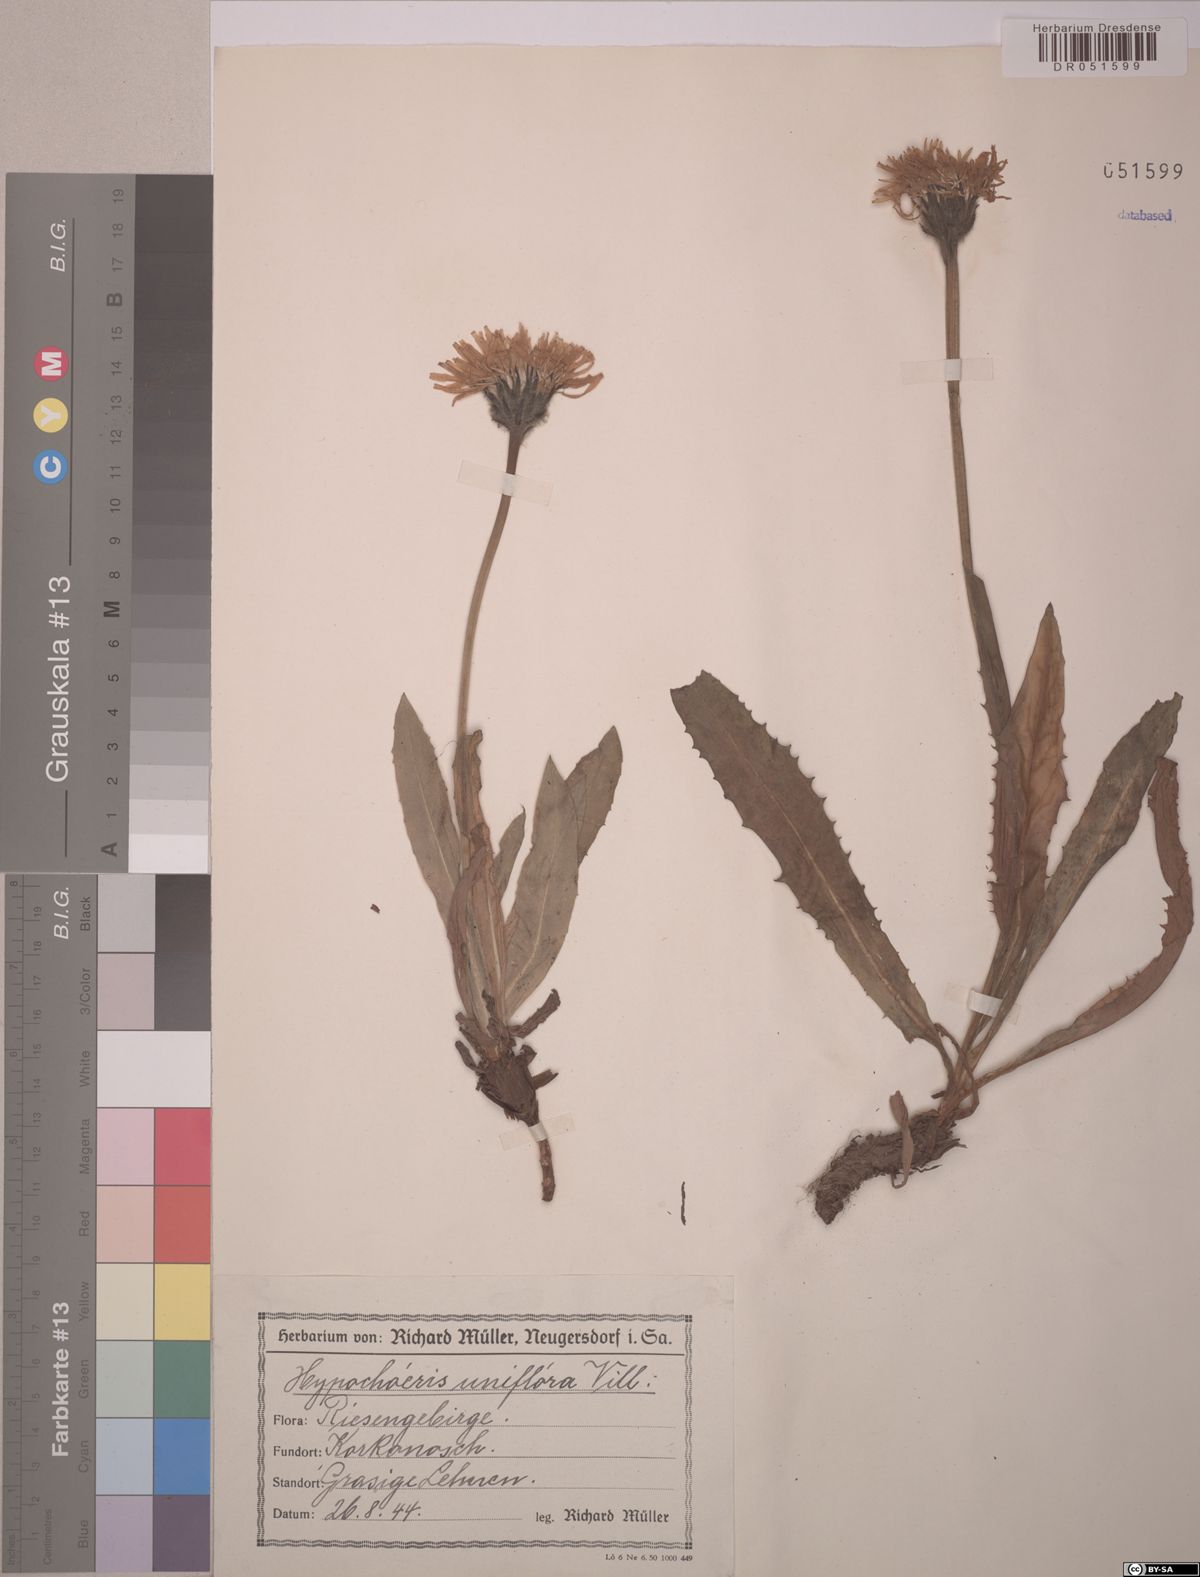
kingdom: Plantae
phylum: Tracheophyta
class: Magnoliopsida
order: Asterales
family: Asteraceae
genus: Trommsdorffia
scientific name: Trommsdorffia uniflora
